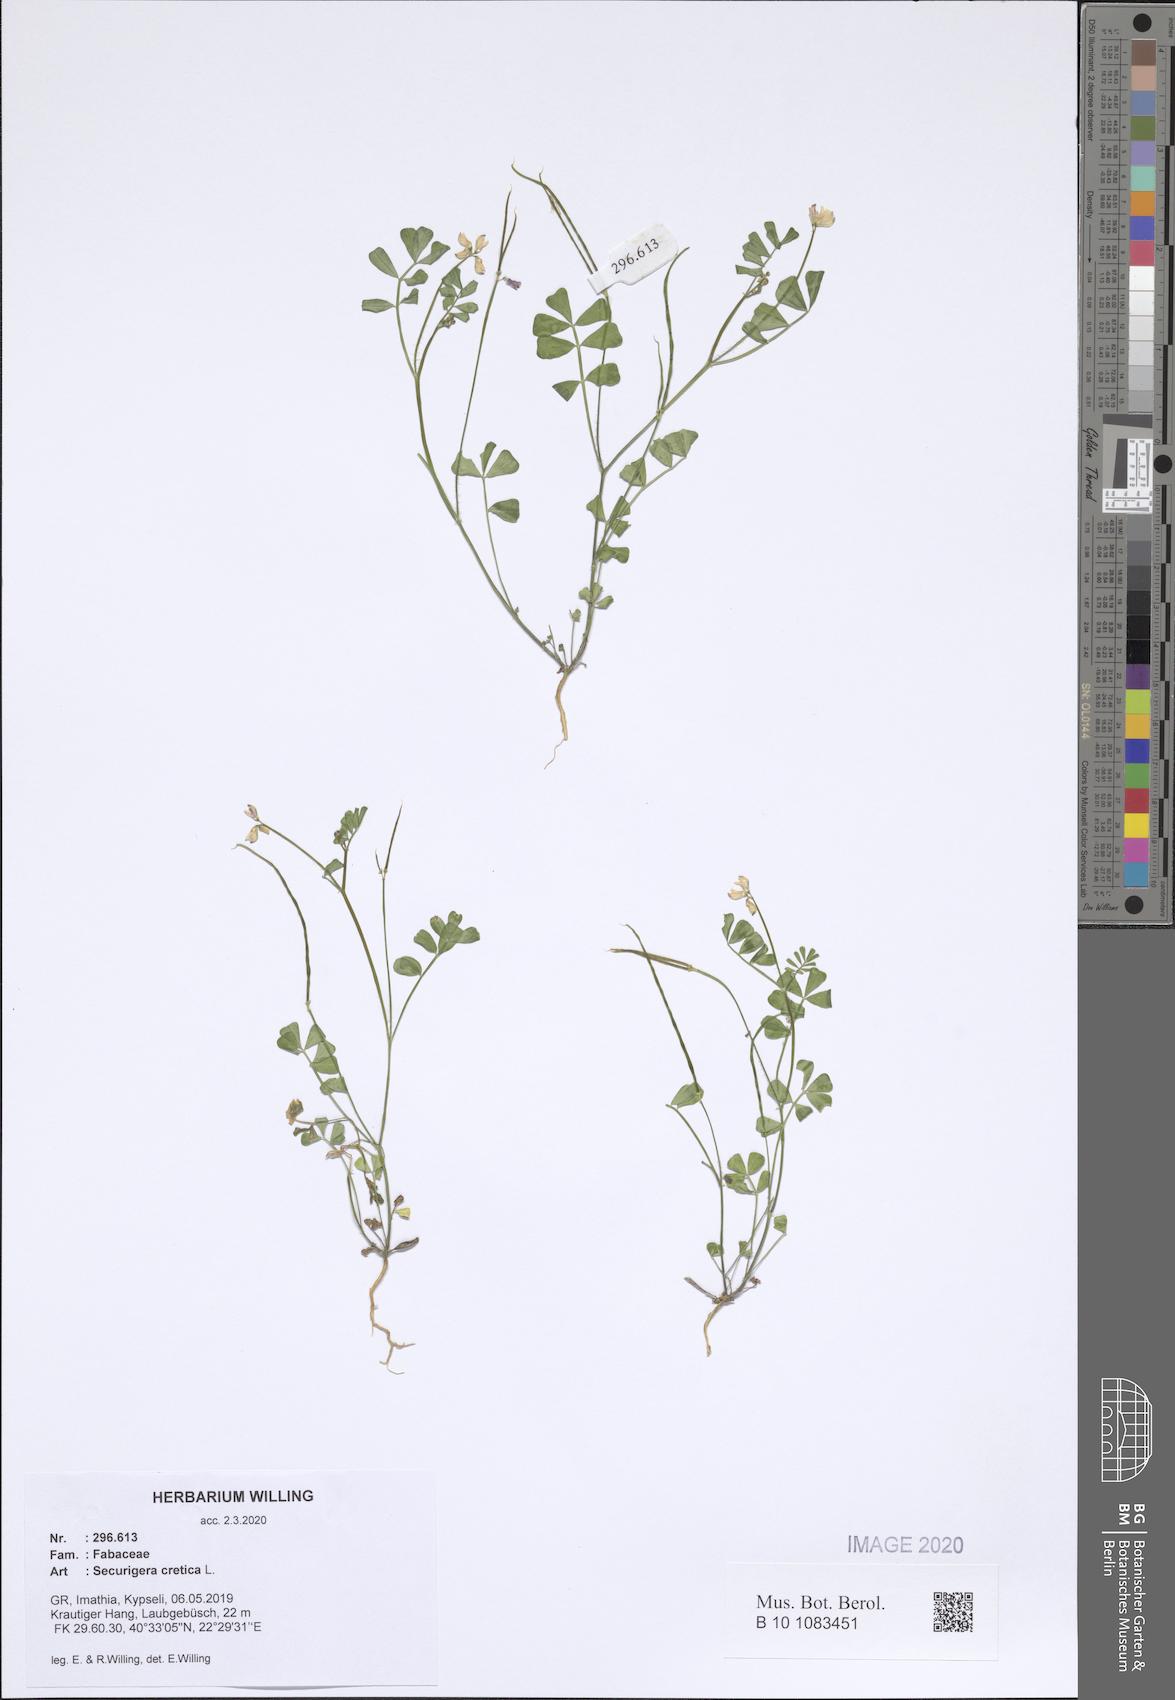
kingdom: Plantae
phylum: Tracheophyta
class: Magnoliopsida
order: Fabales
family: Fabaceae
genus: Coronilla
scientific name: Coronilla cretica
